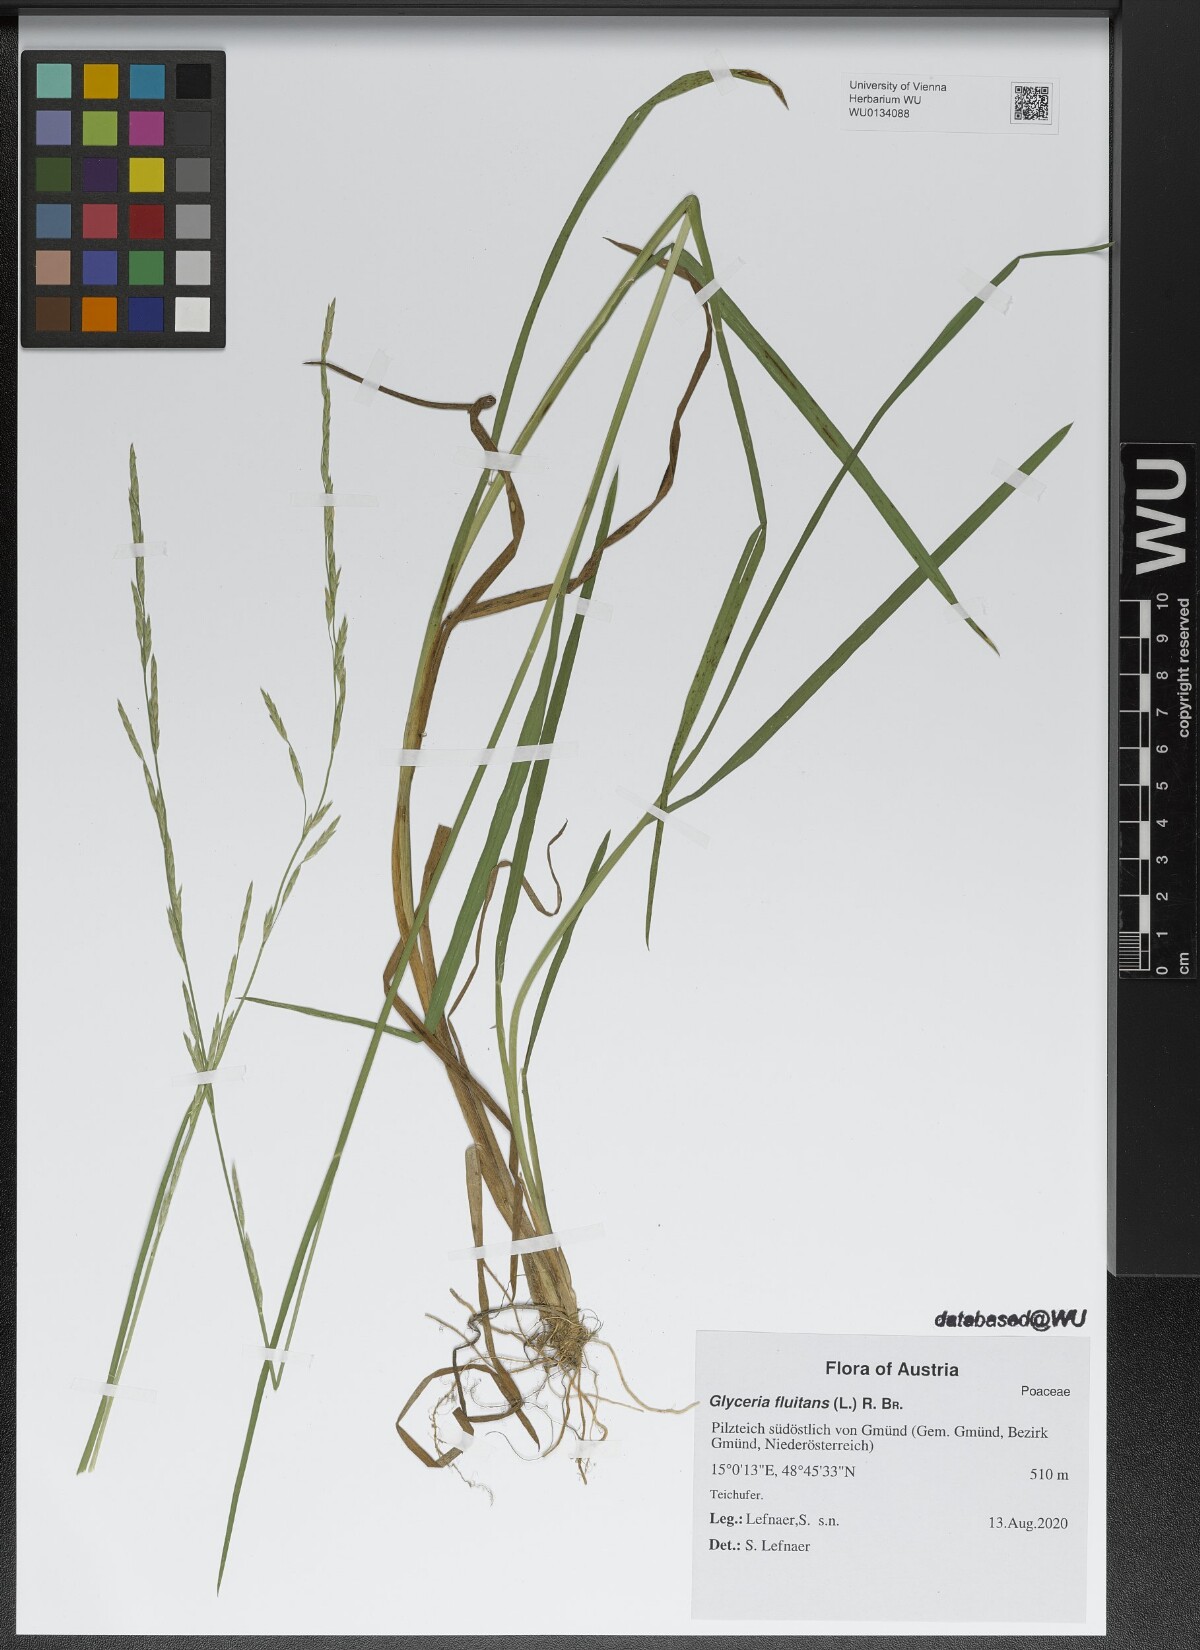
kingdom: Plantae
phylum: Tracheophyta
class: Liliopsida
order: Poales
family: Poaceae
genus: Glyceria
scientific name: Glyceria fluitans
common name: Floating sweet-grass
